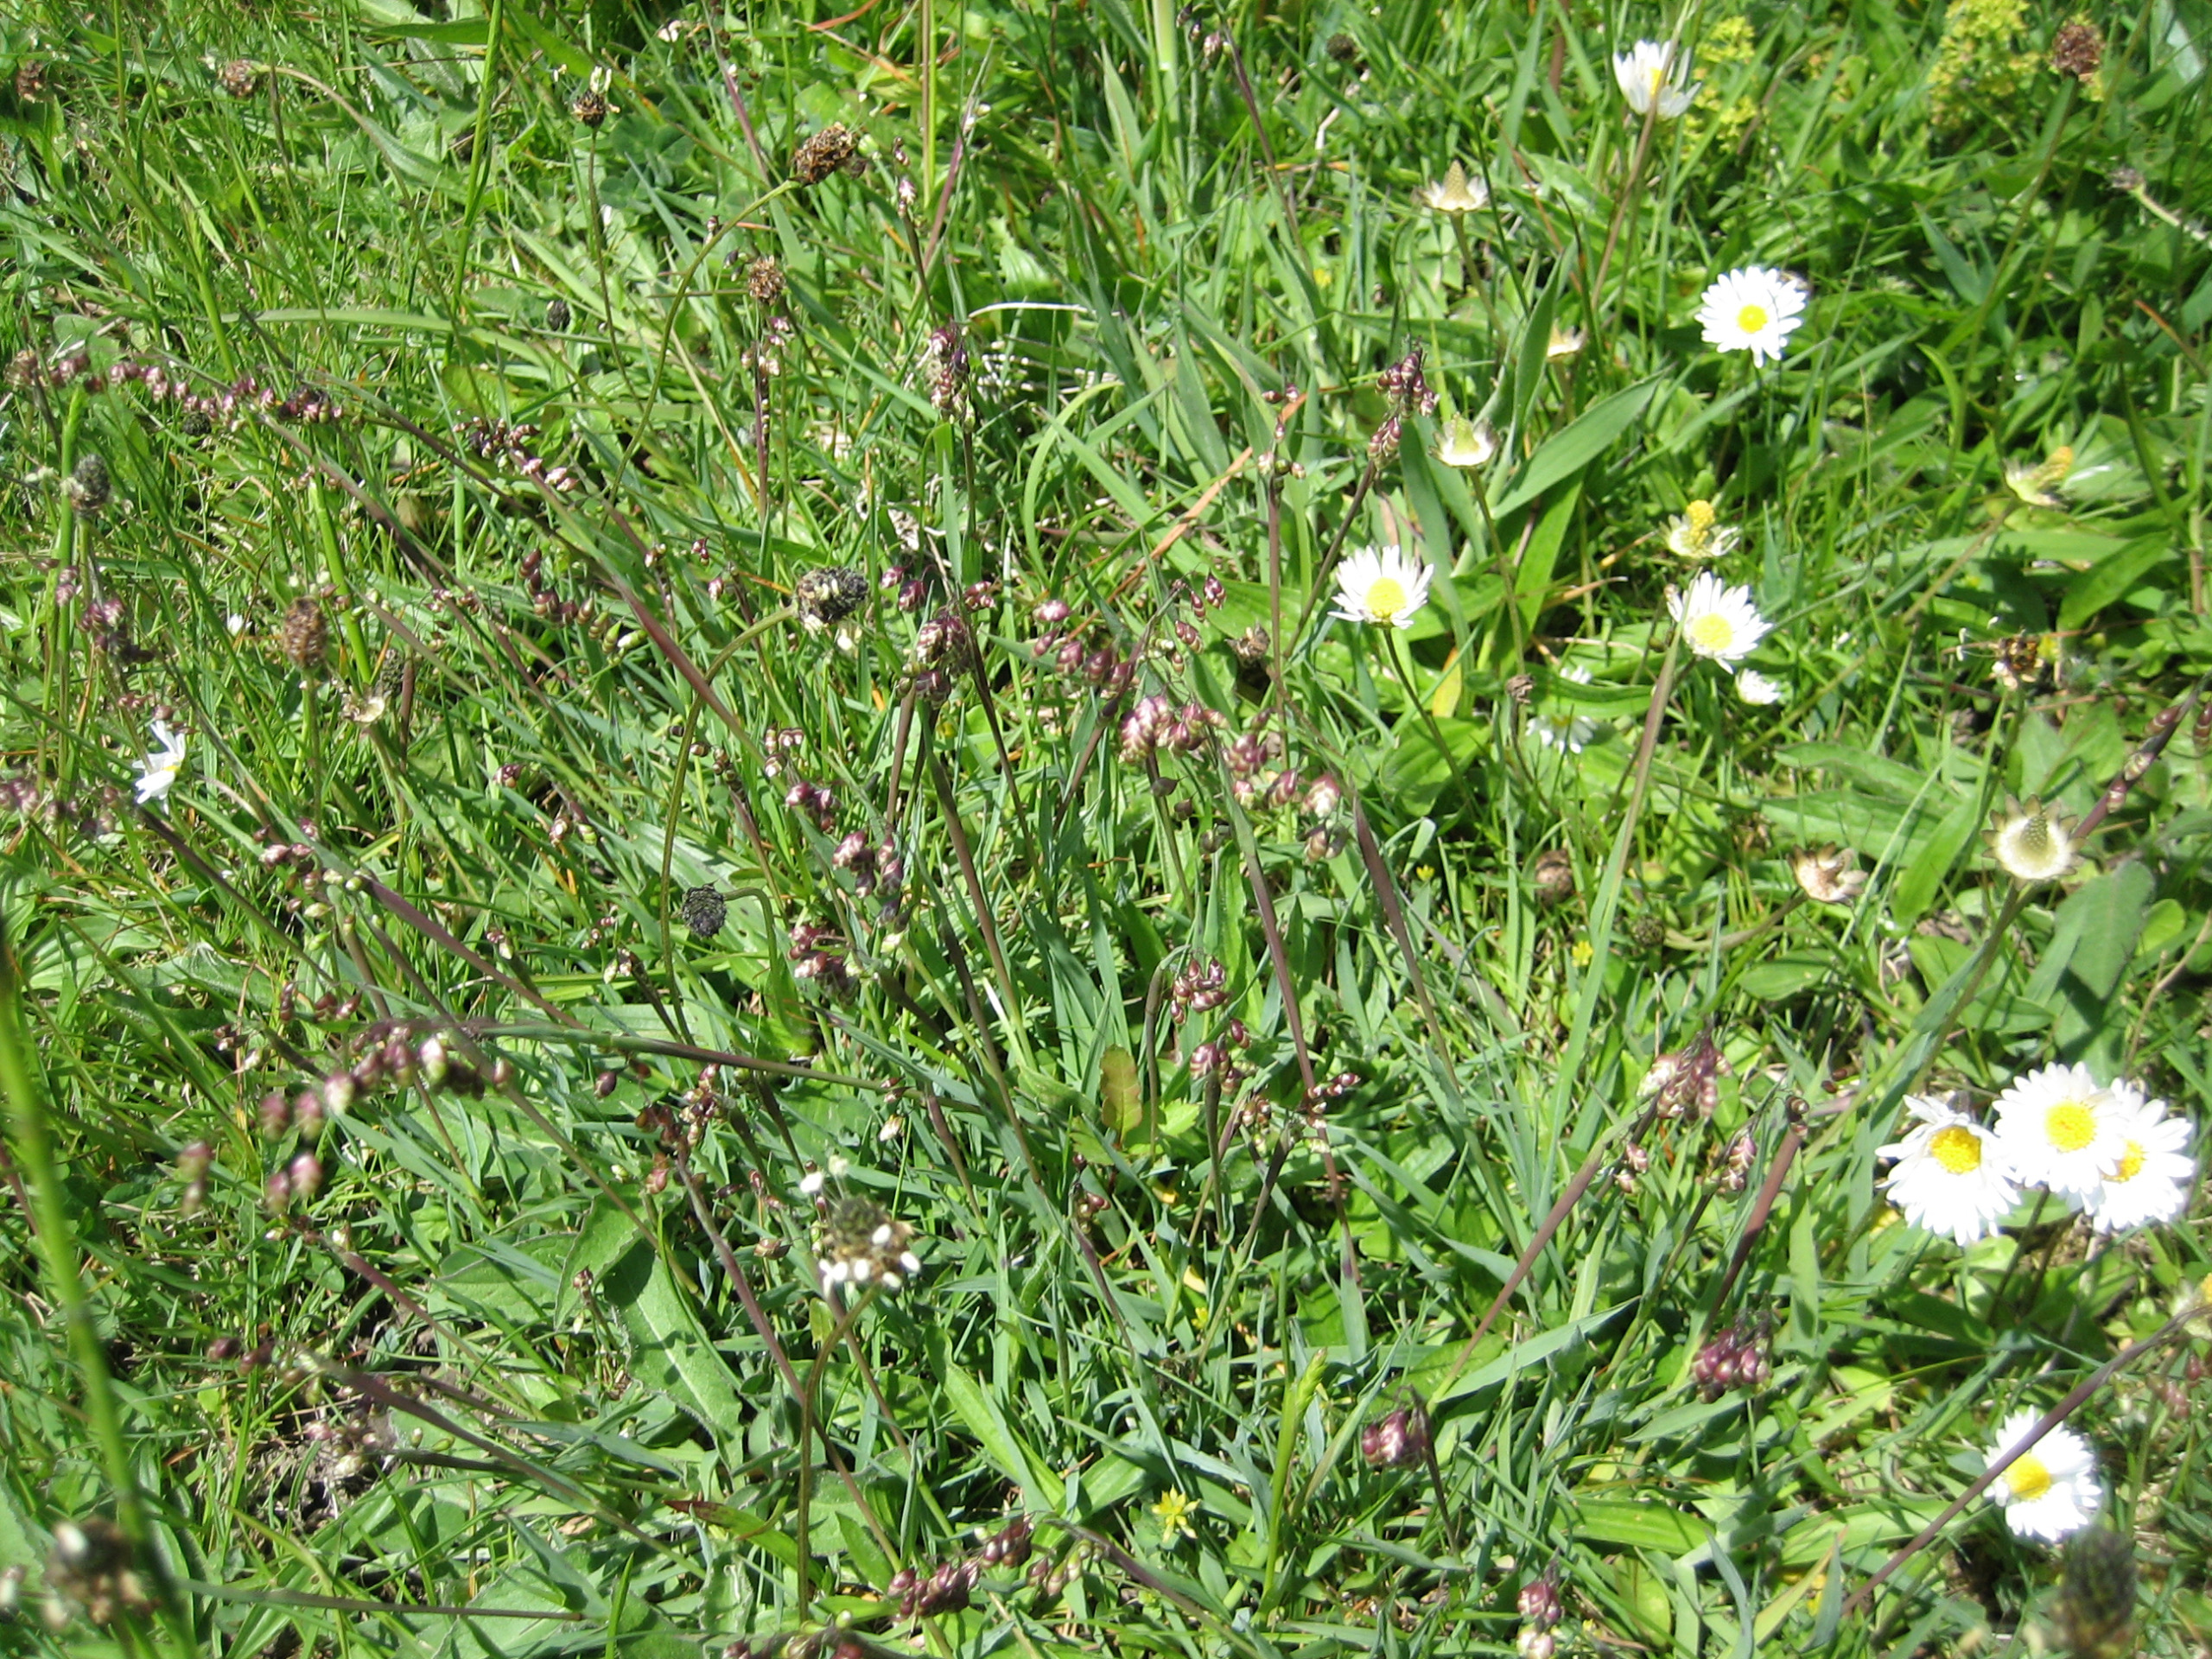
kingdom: Plantae
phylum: Tracheophyta
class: Liliopsida
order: Poales
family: Poaceae
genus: Briza
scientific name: Briza media
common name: Hjertegræs
